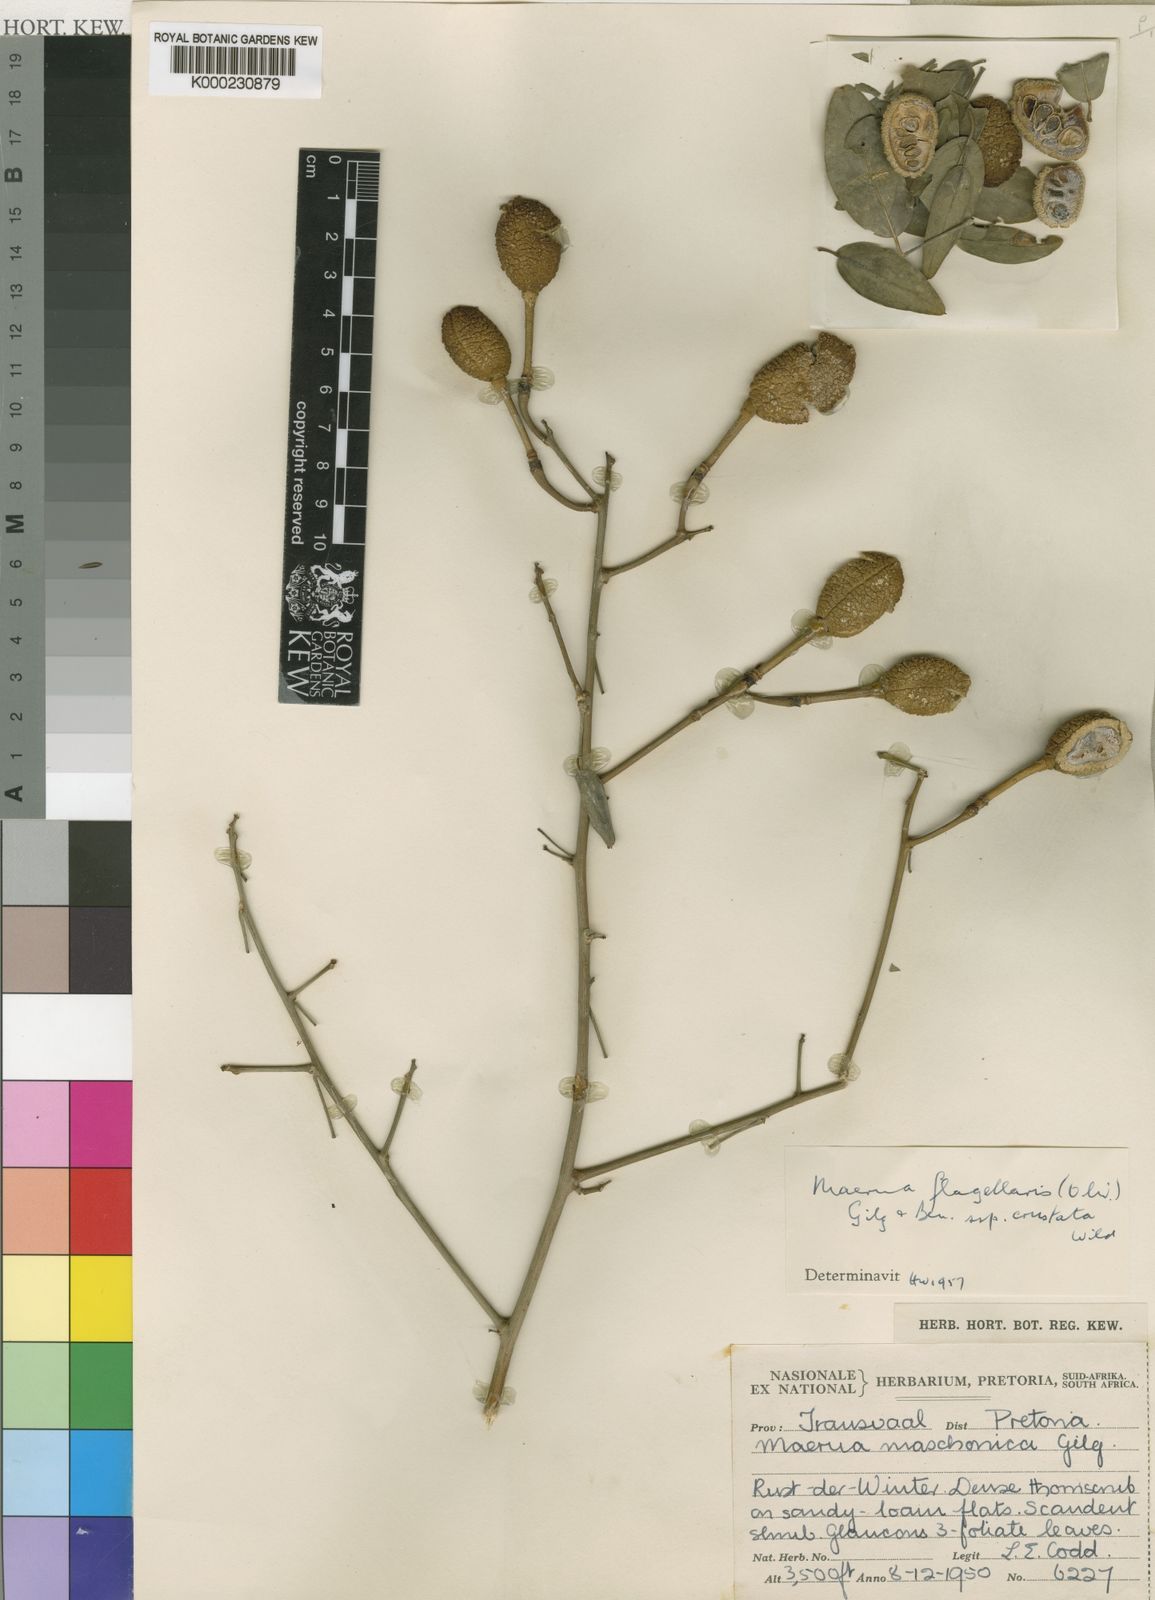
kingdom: Plantae
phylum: Tracheophyta
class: Magnoliopsida
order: Brassicales
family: Capparaceae
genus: Maerua
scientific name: Maerua juncea
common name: Rough-skinned bush cherry
